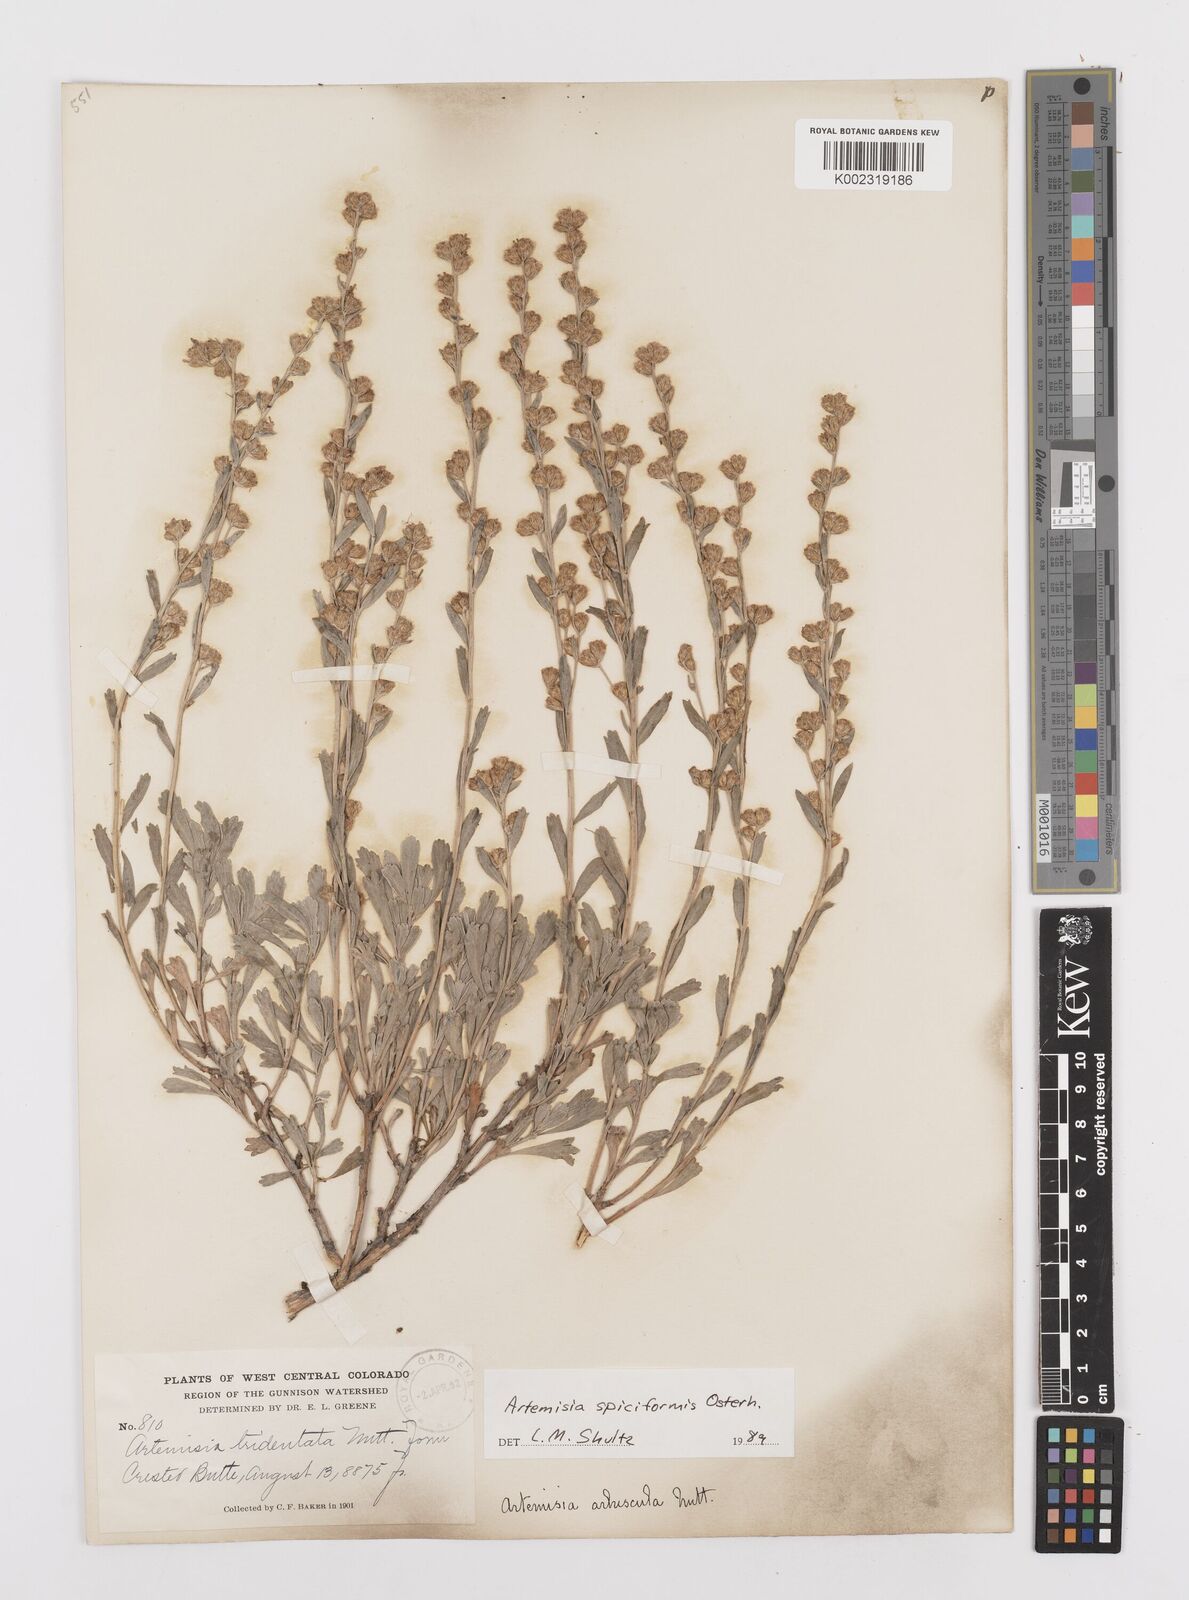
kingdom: Plantae
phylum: Tracheophyta
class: Magnoliopsida
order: Asterales
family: Asteraceae
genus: Artemisia
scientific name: Artemisia spiciformis
